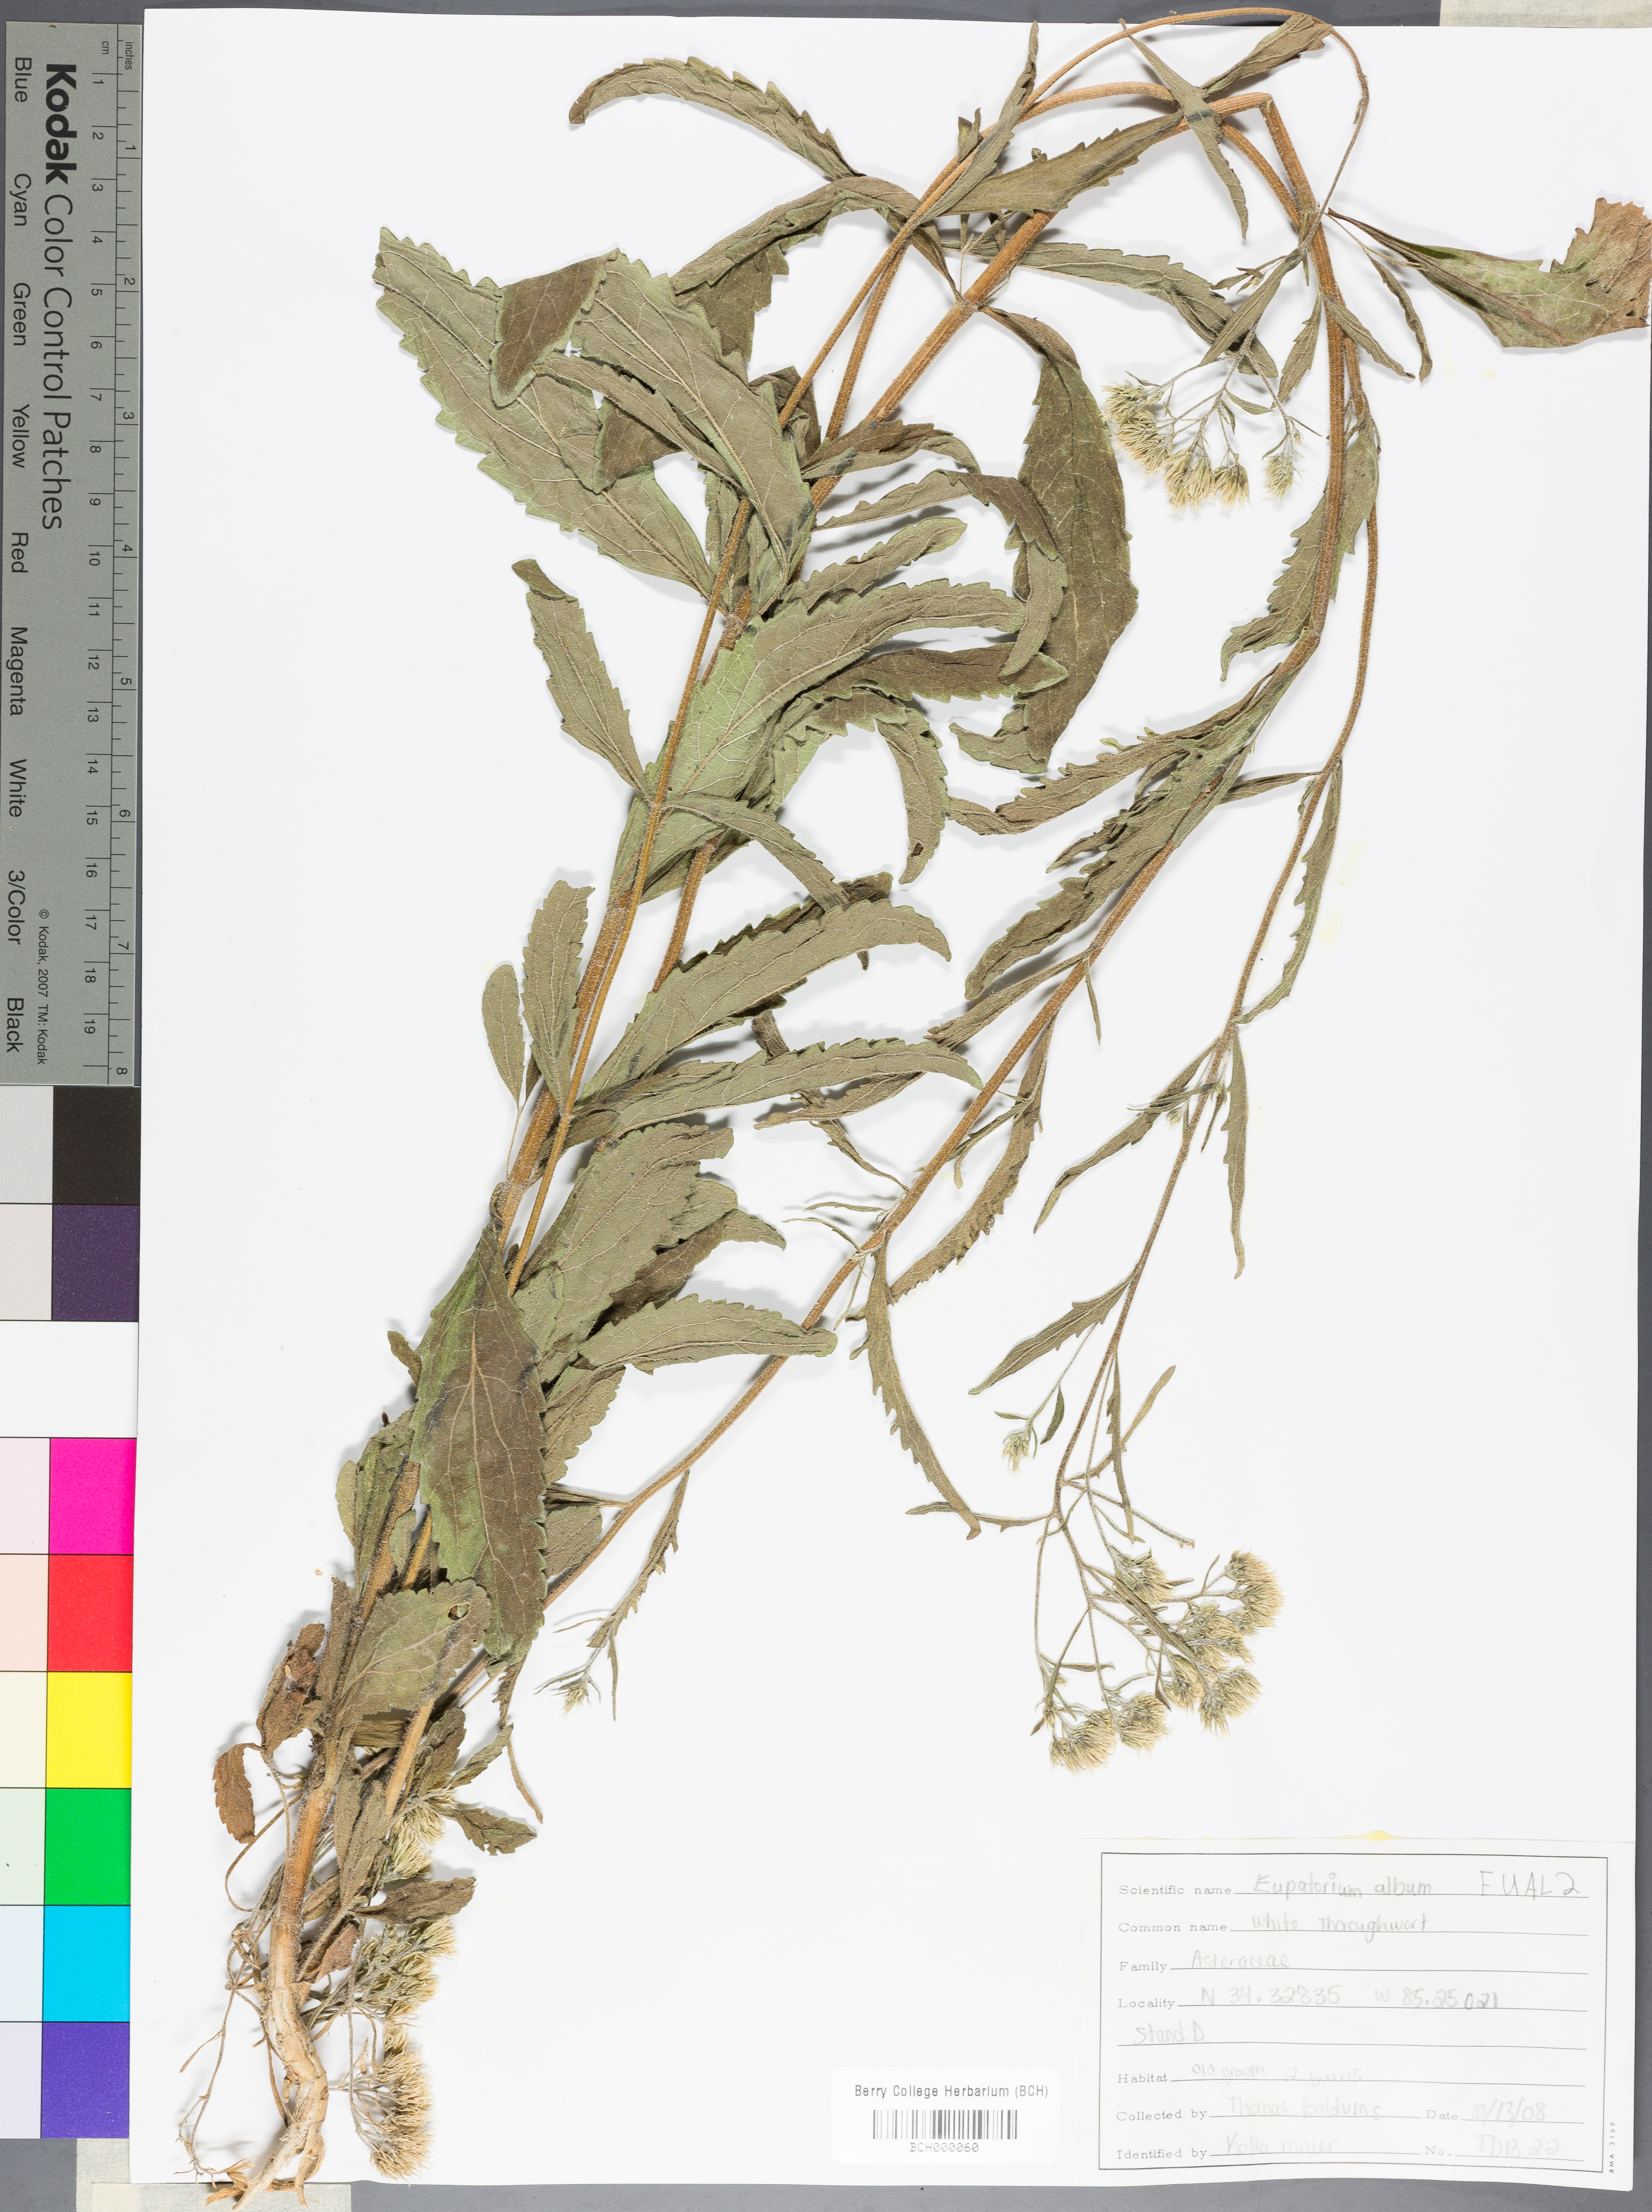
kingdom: Plantae
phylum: Tracheophyta
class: Magnoliopsida
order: Asterales
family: Asteraceae
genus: Eupatorium
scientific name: Eupatorium album
